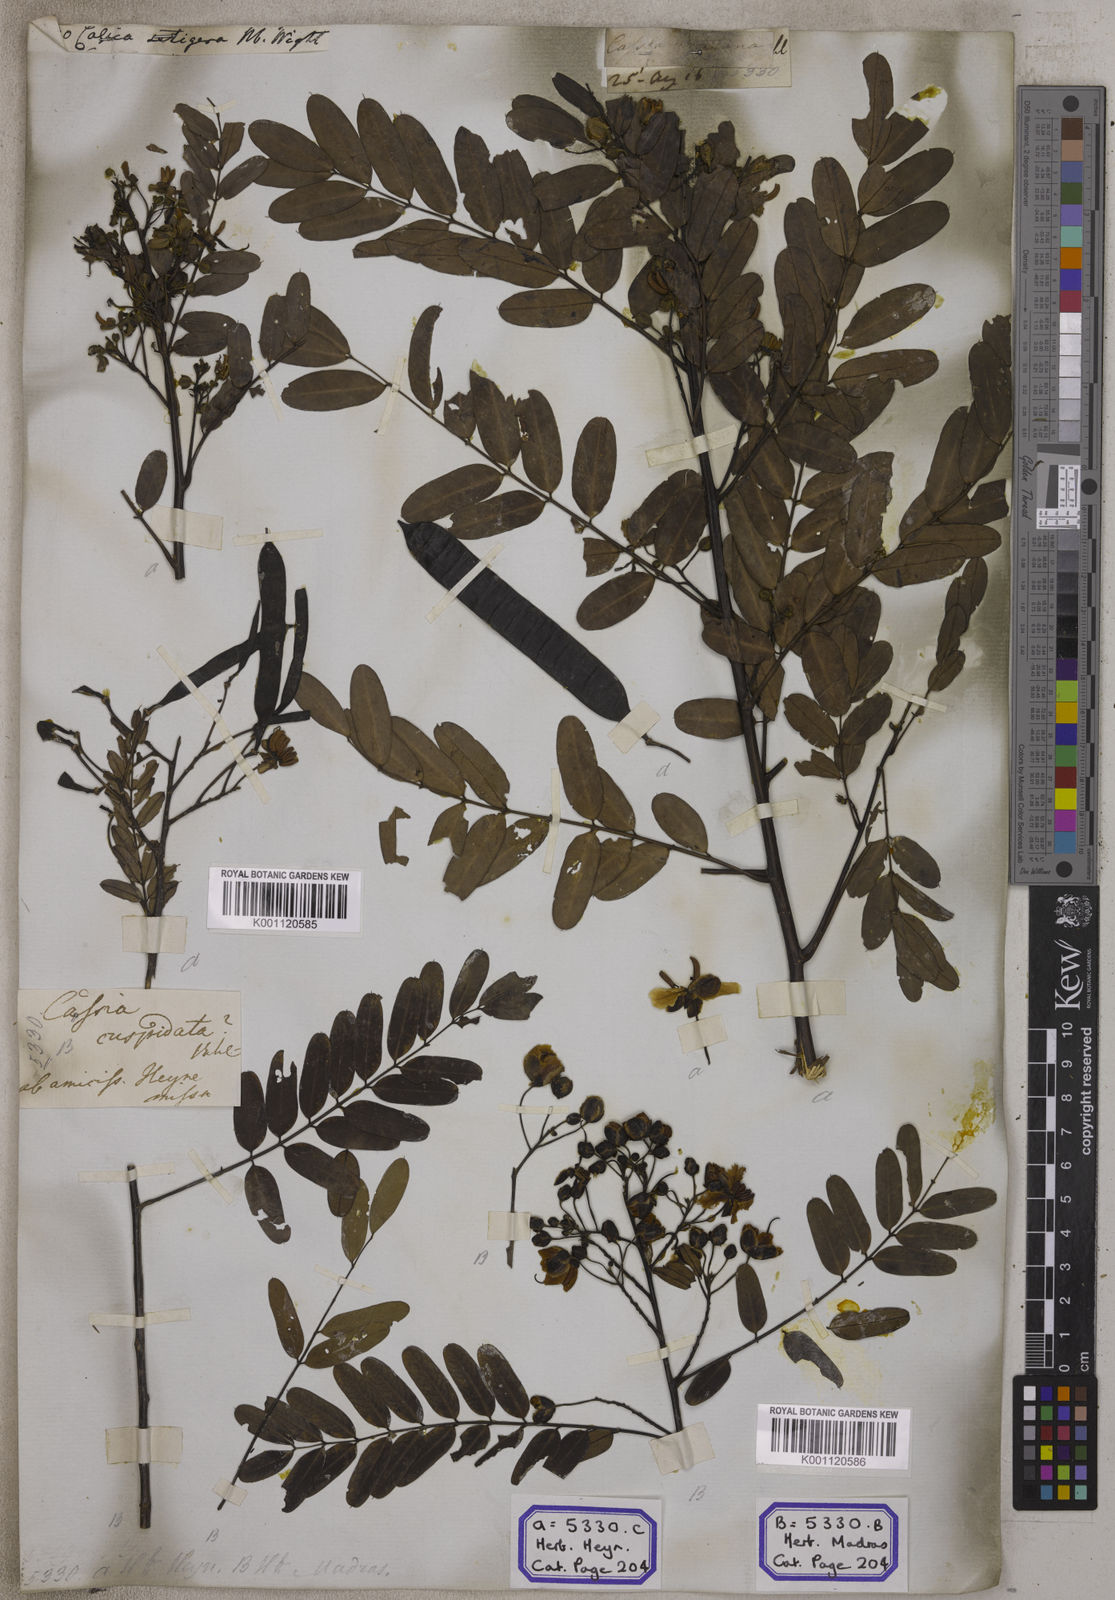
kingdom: Plantae
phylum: Tracheophyta
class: Magnoliopsida
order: Fabales
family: Fabaceae
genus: Senna
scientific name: Senna montana
